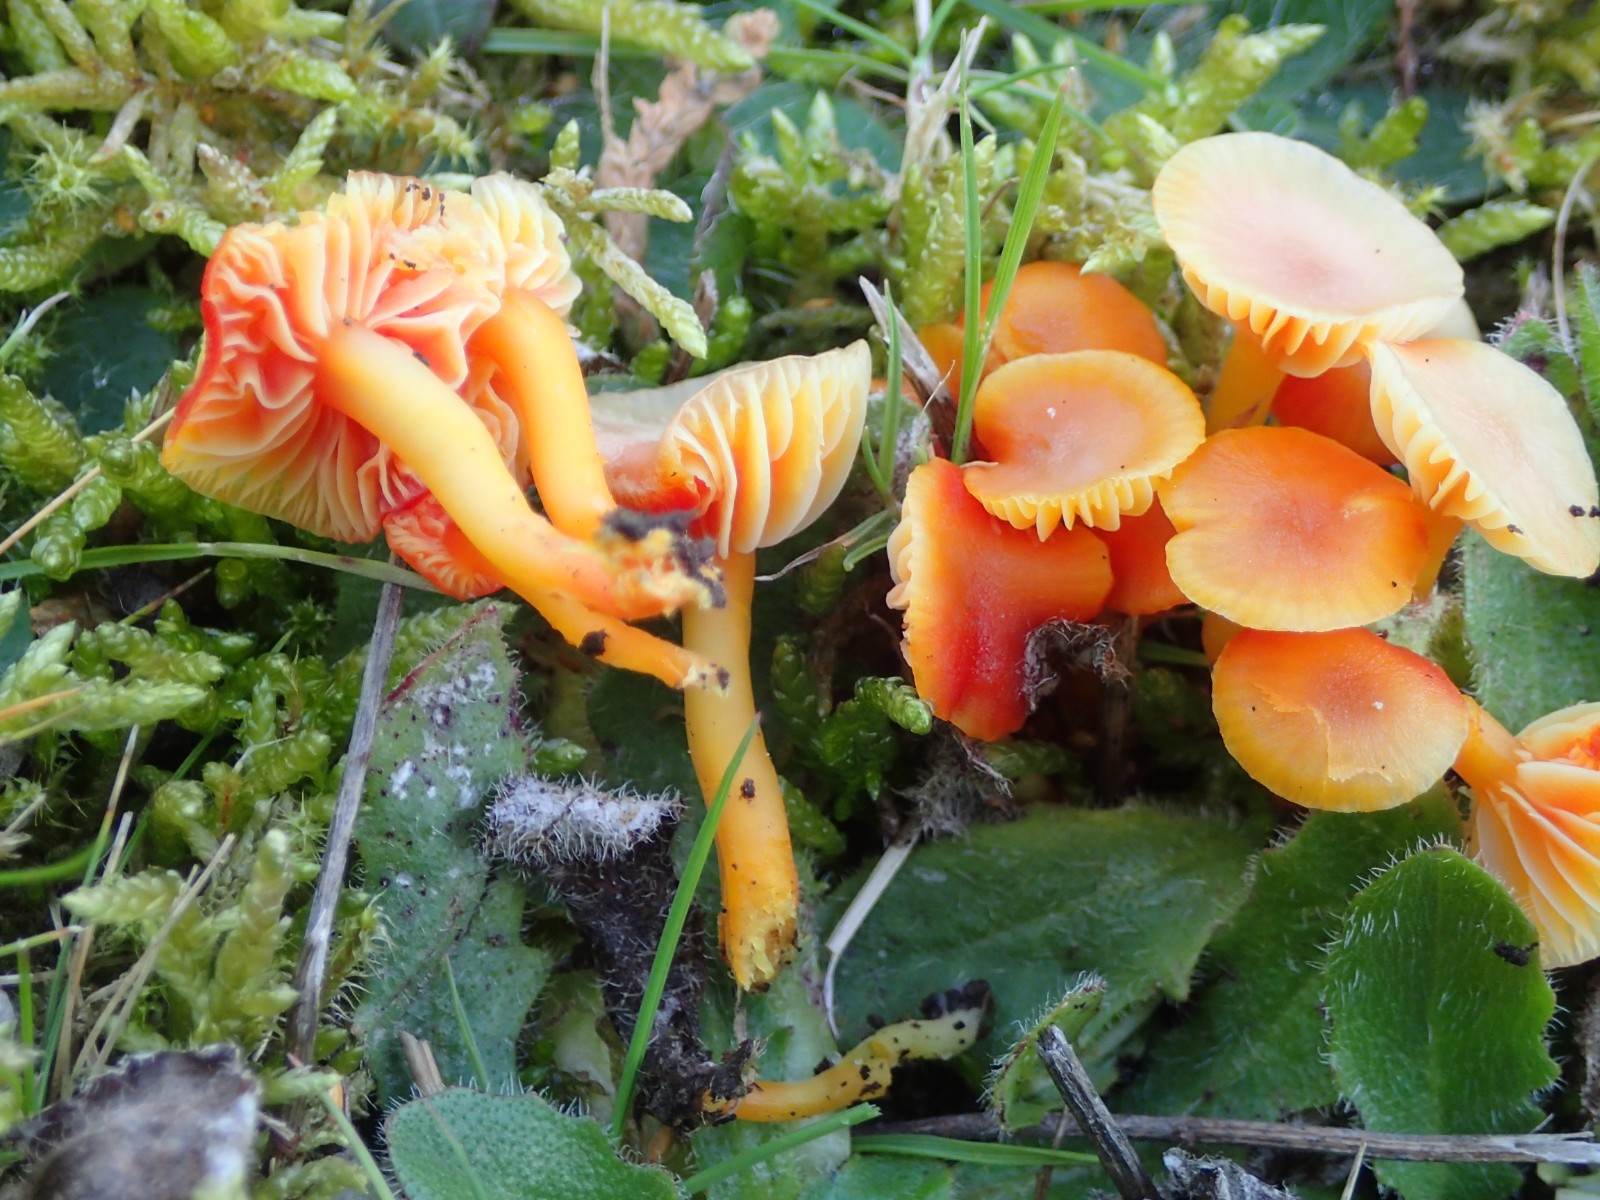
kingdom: Fungi
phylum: Basidiomycota
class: Agaricomycetes
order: Agaricales
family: Hygrophoraceae
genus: Hygrocybe
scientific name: Hygrocybe coccinea
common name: cinnober-vokshat
